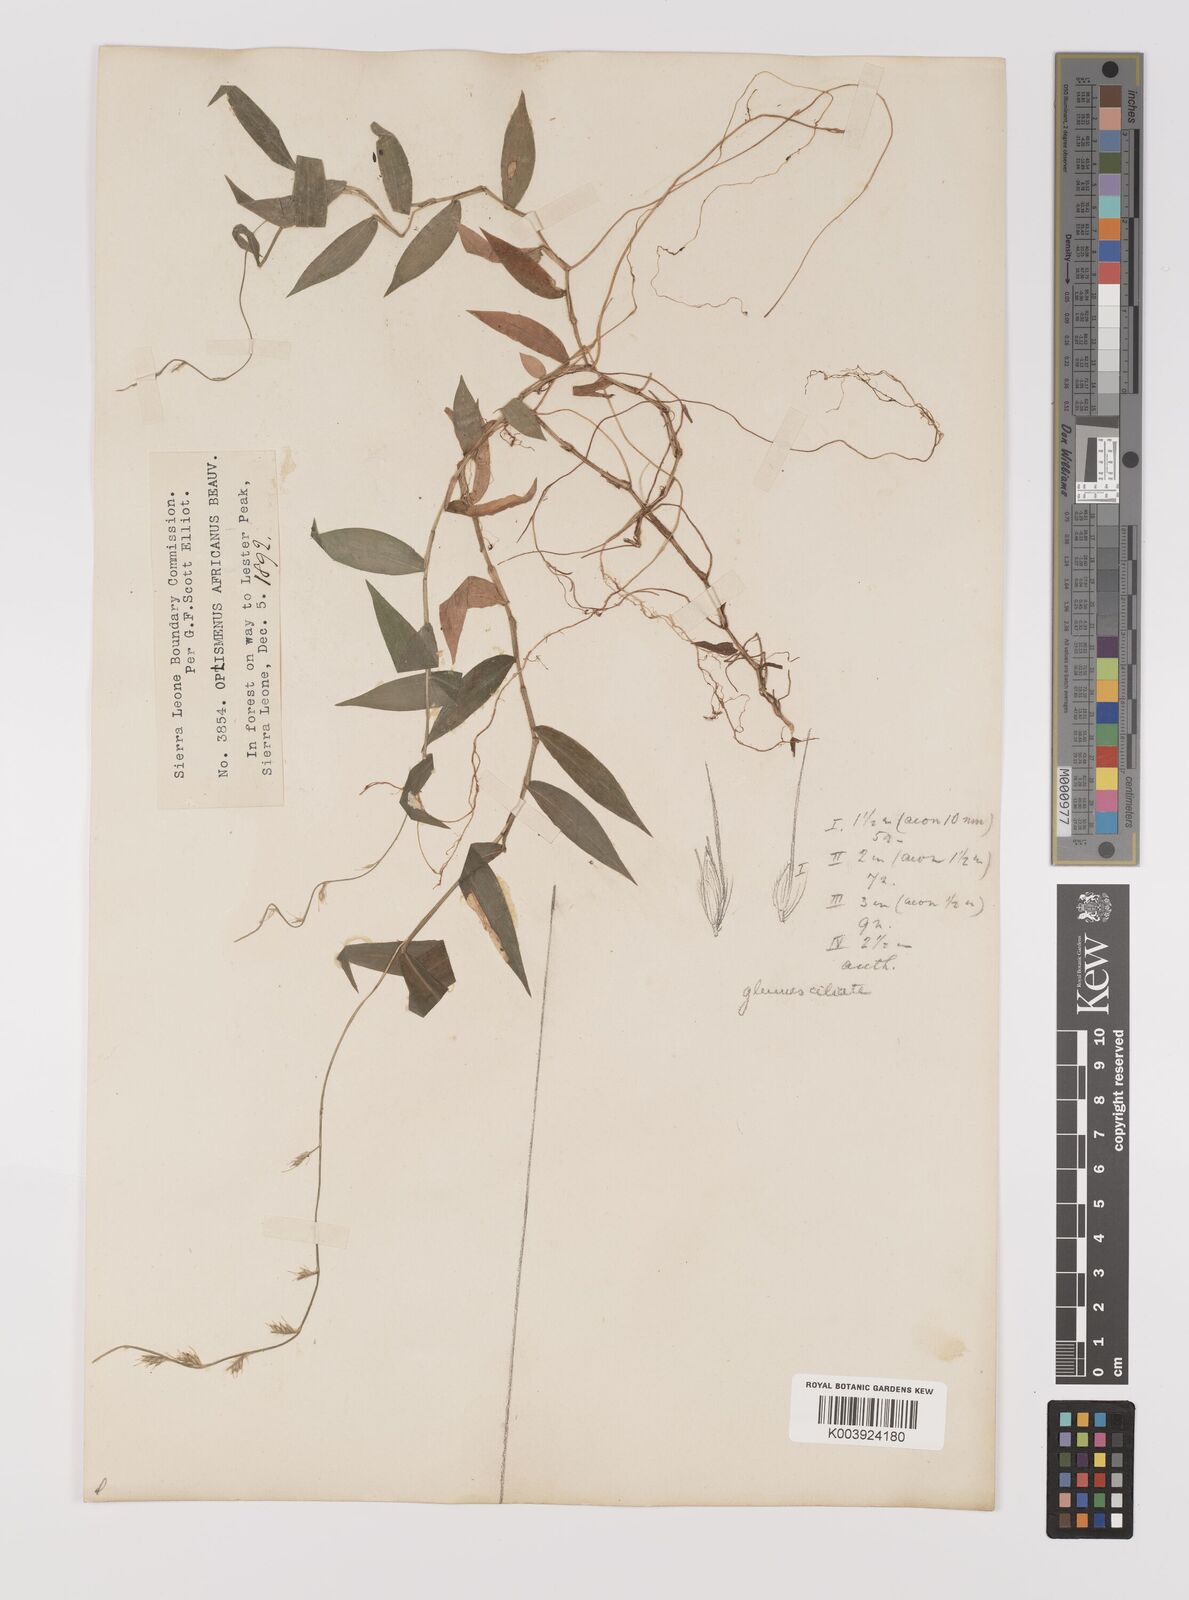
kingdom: Plantae
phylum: Tracheophyta
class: Liliopsida
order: Poales
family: Poaceae
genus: Oplismenus
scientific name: Oplismenus hirtellus
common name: Basketgrass
